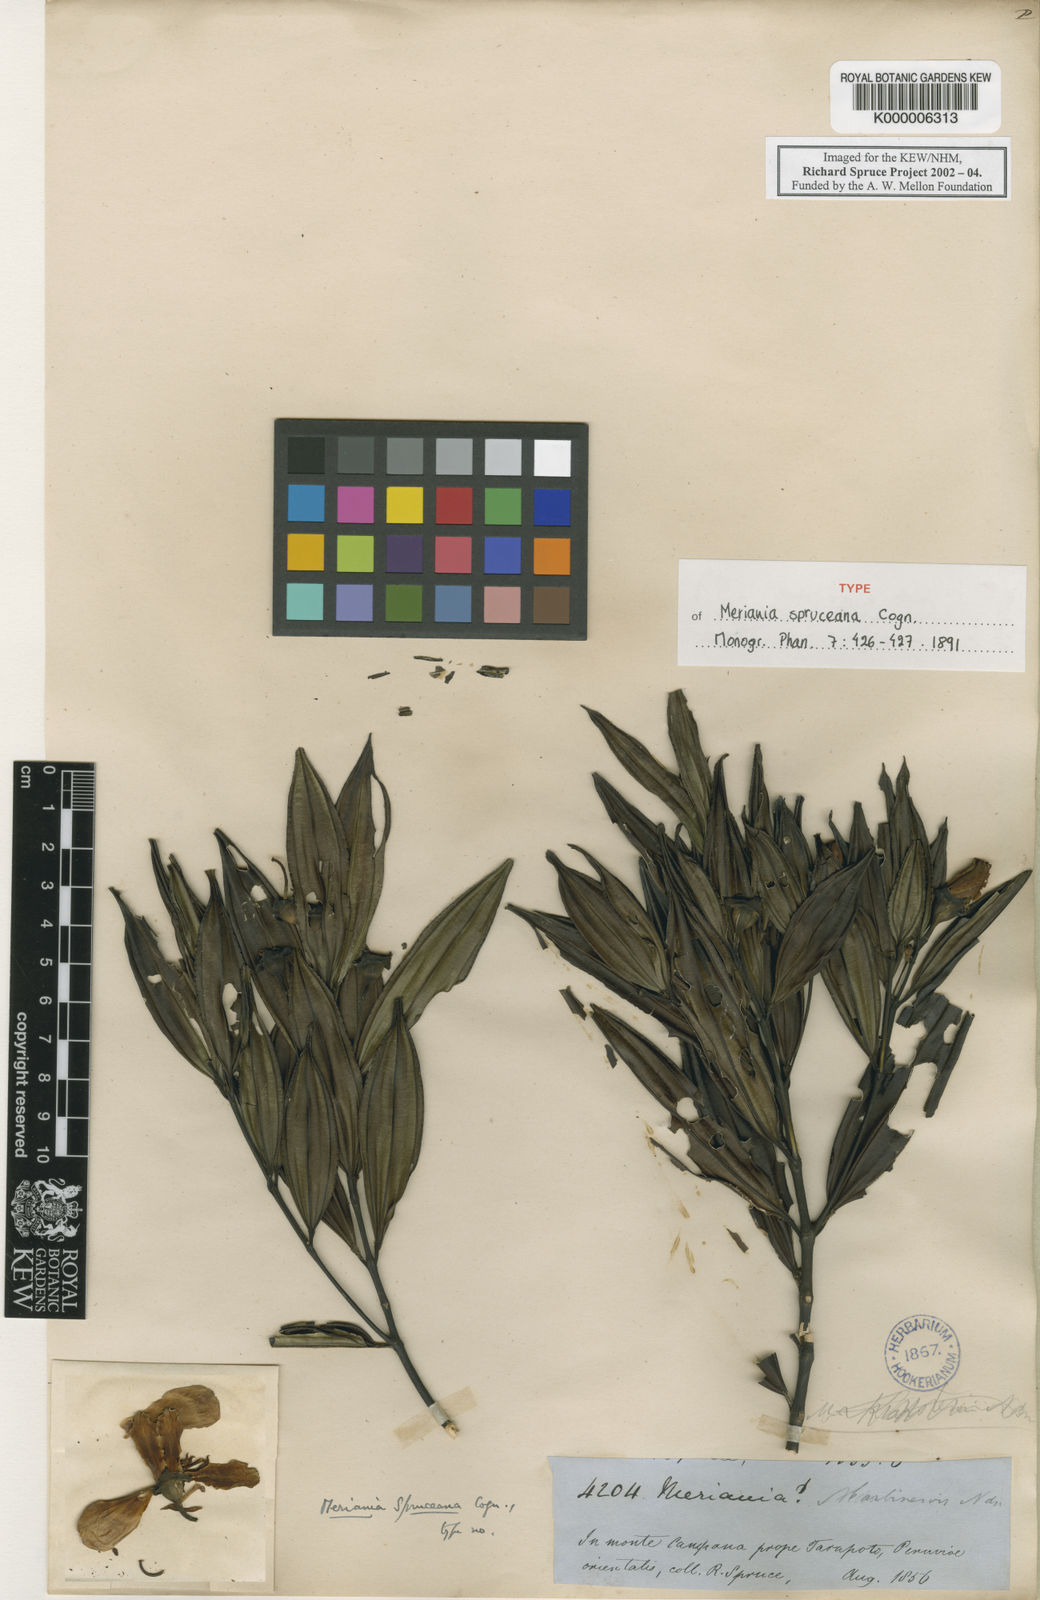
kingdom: Plantae
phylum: Tracheophyta
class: Magnoliopsida
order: Myrtales
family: Melastomataceae
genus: Meriania
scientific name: Meriania speciosa
